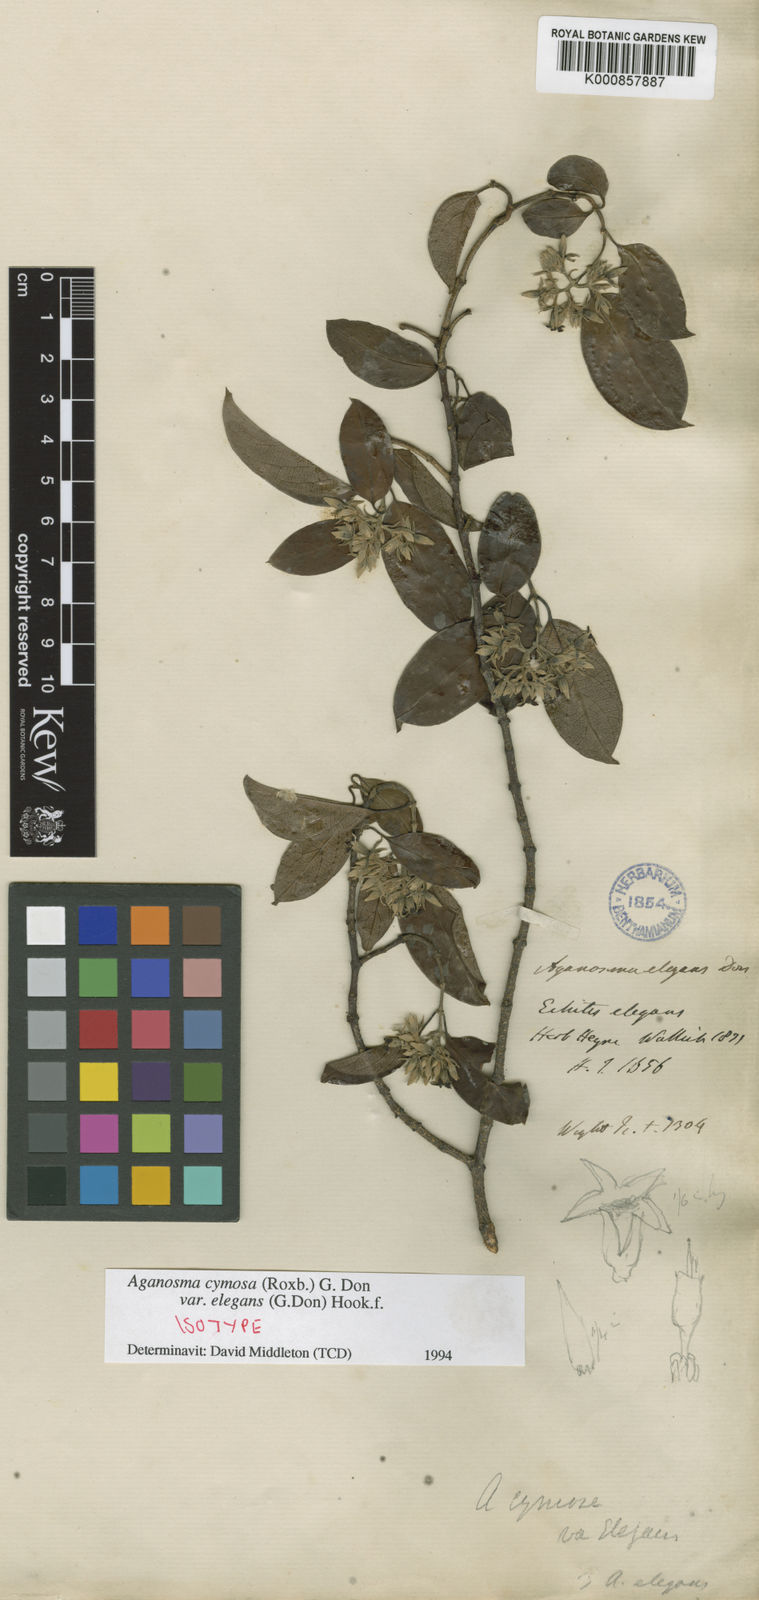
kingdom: Plantae
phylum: Tracheophyta
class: Magnoliopsida
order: Gentianales
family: Apocynaceae
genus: Aganosma
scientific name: Aganosma cymosa
